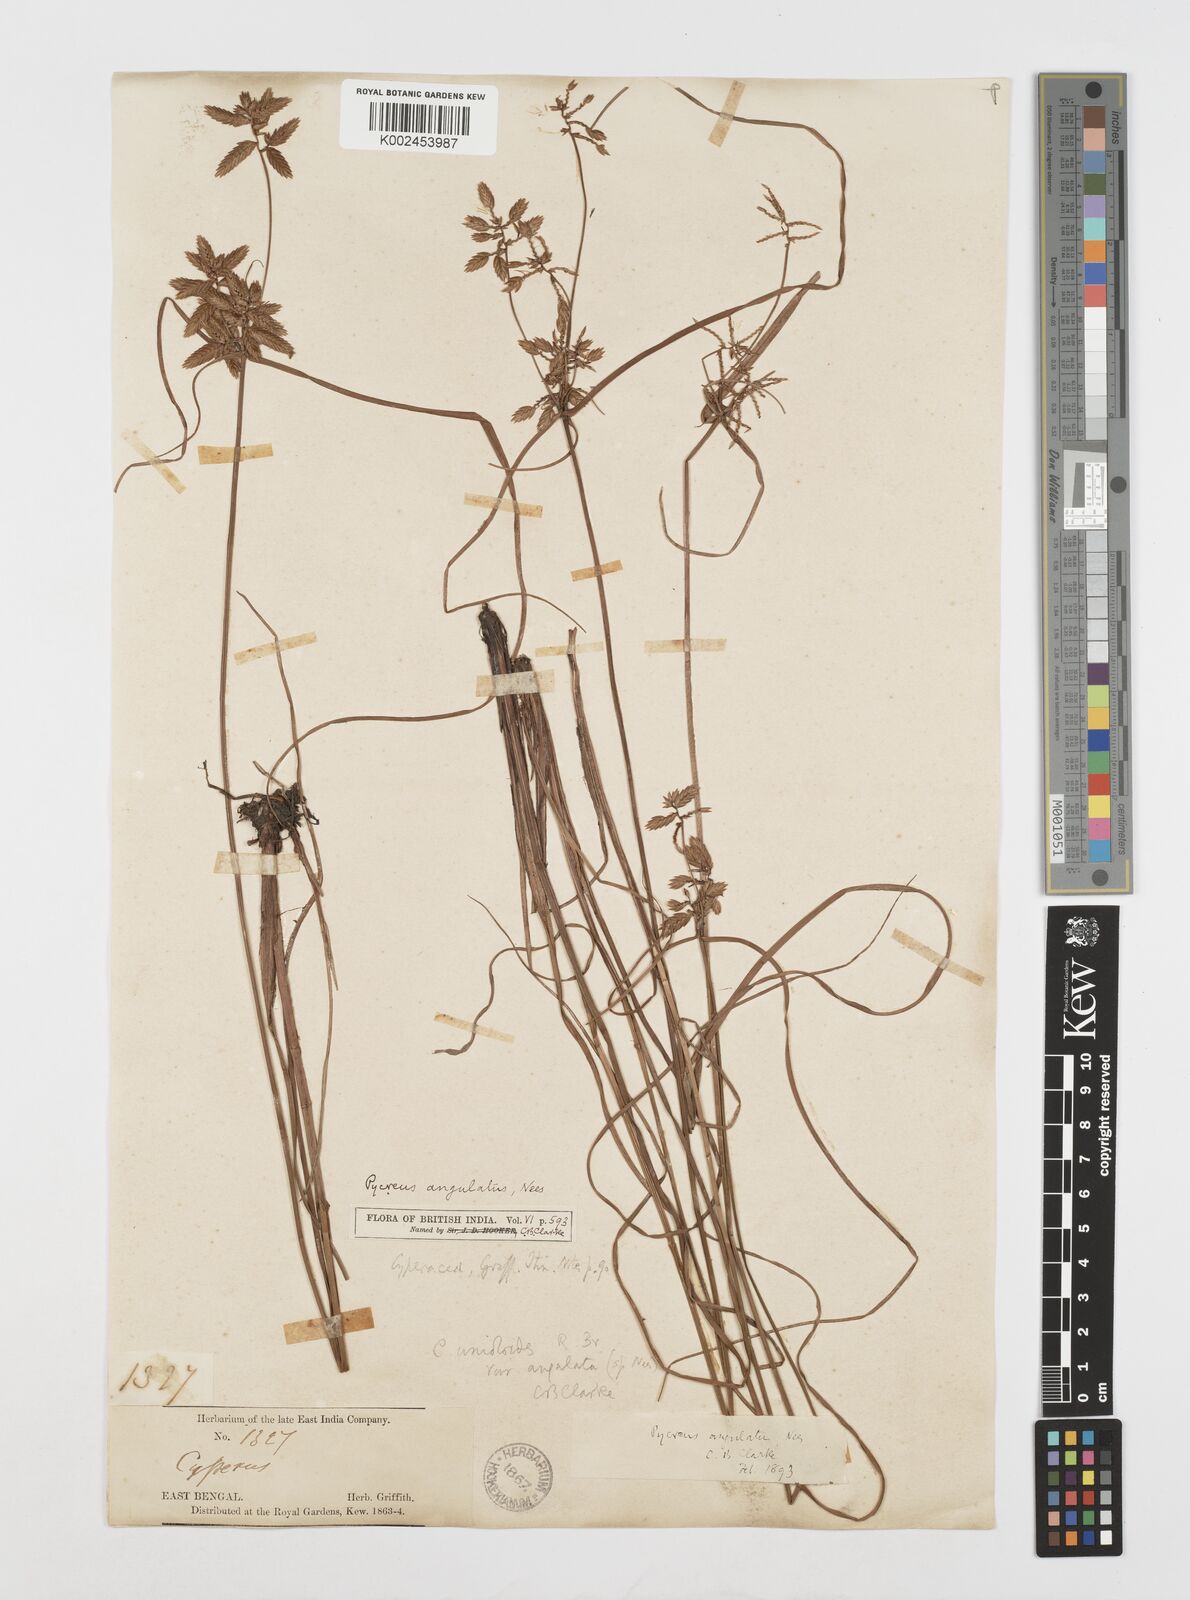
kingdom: Plantae
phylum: Tracheophyta
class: Liliopsida
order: Poales
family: Cyperaceae
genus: Cyperus
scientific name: Cyperus unioloides
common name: Uniola flatsedge
